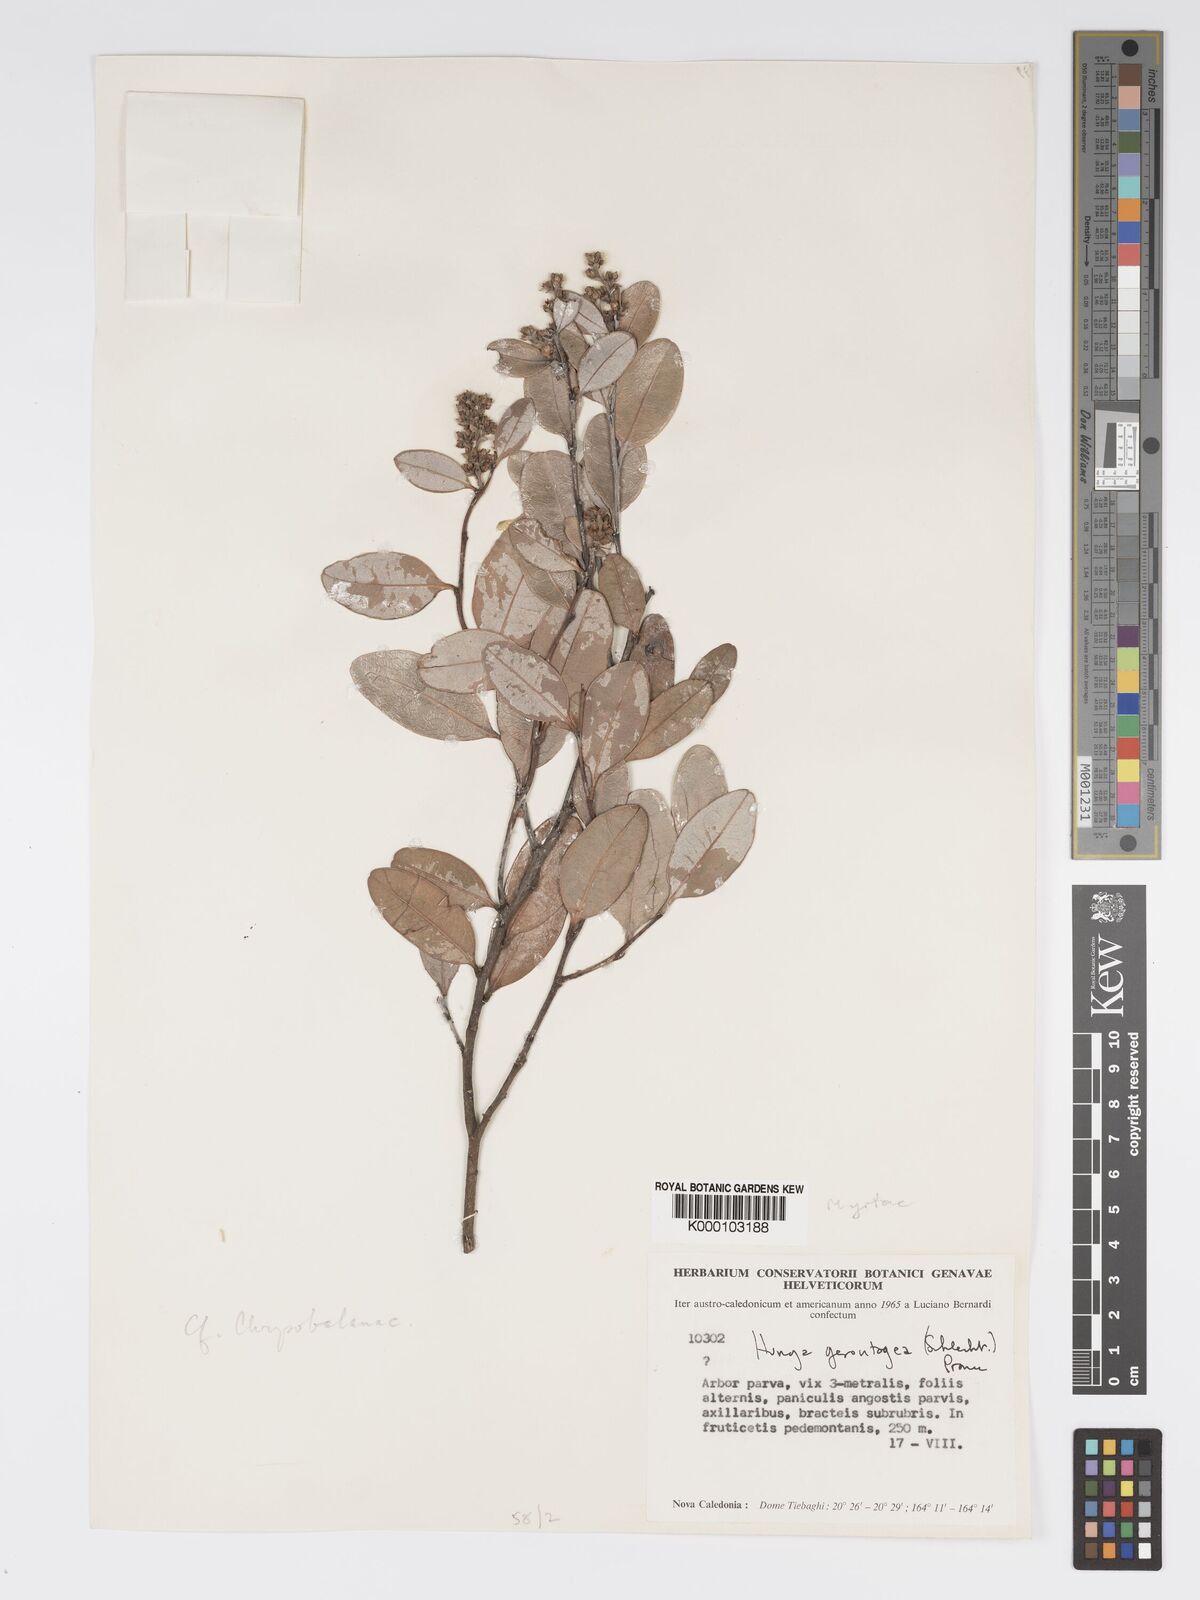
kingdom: Plantae
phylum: Tracheophyta
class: Magnoliopsida
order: Malpighiales
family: Chrysobalanaceae
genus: Hunga
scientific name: Hunga gerontogea
